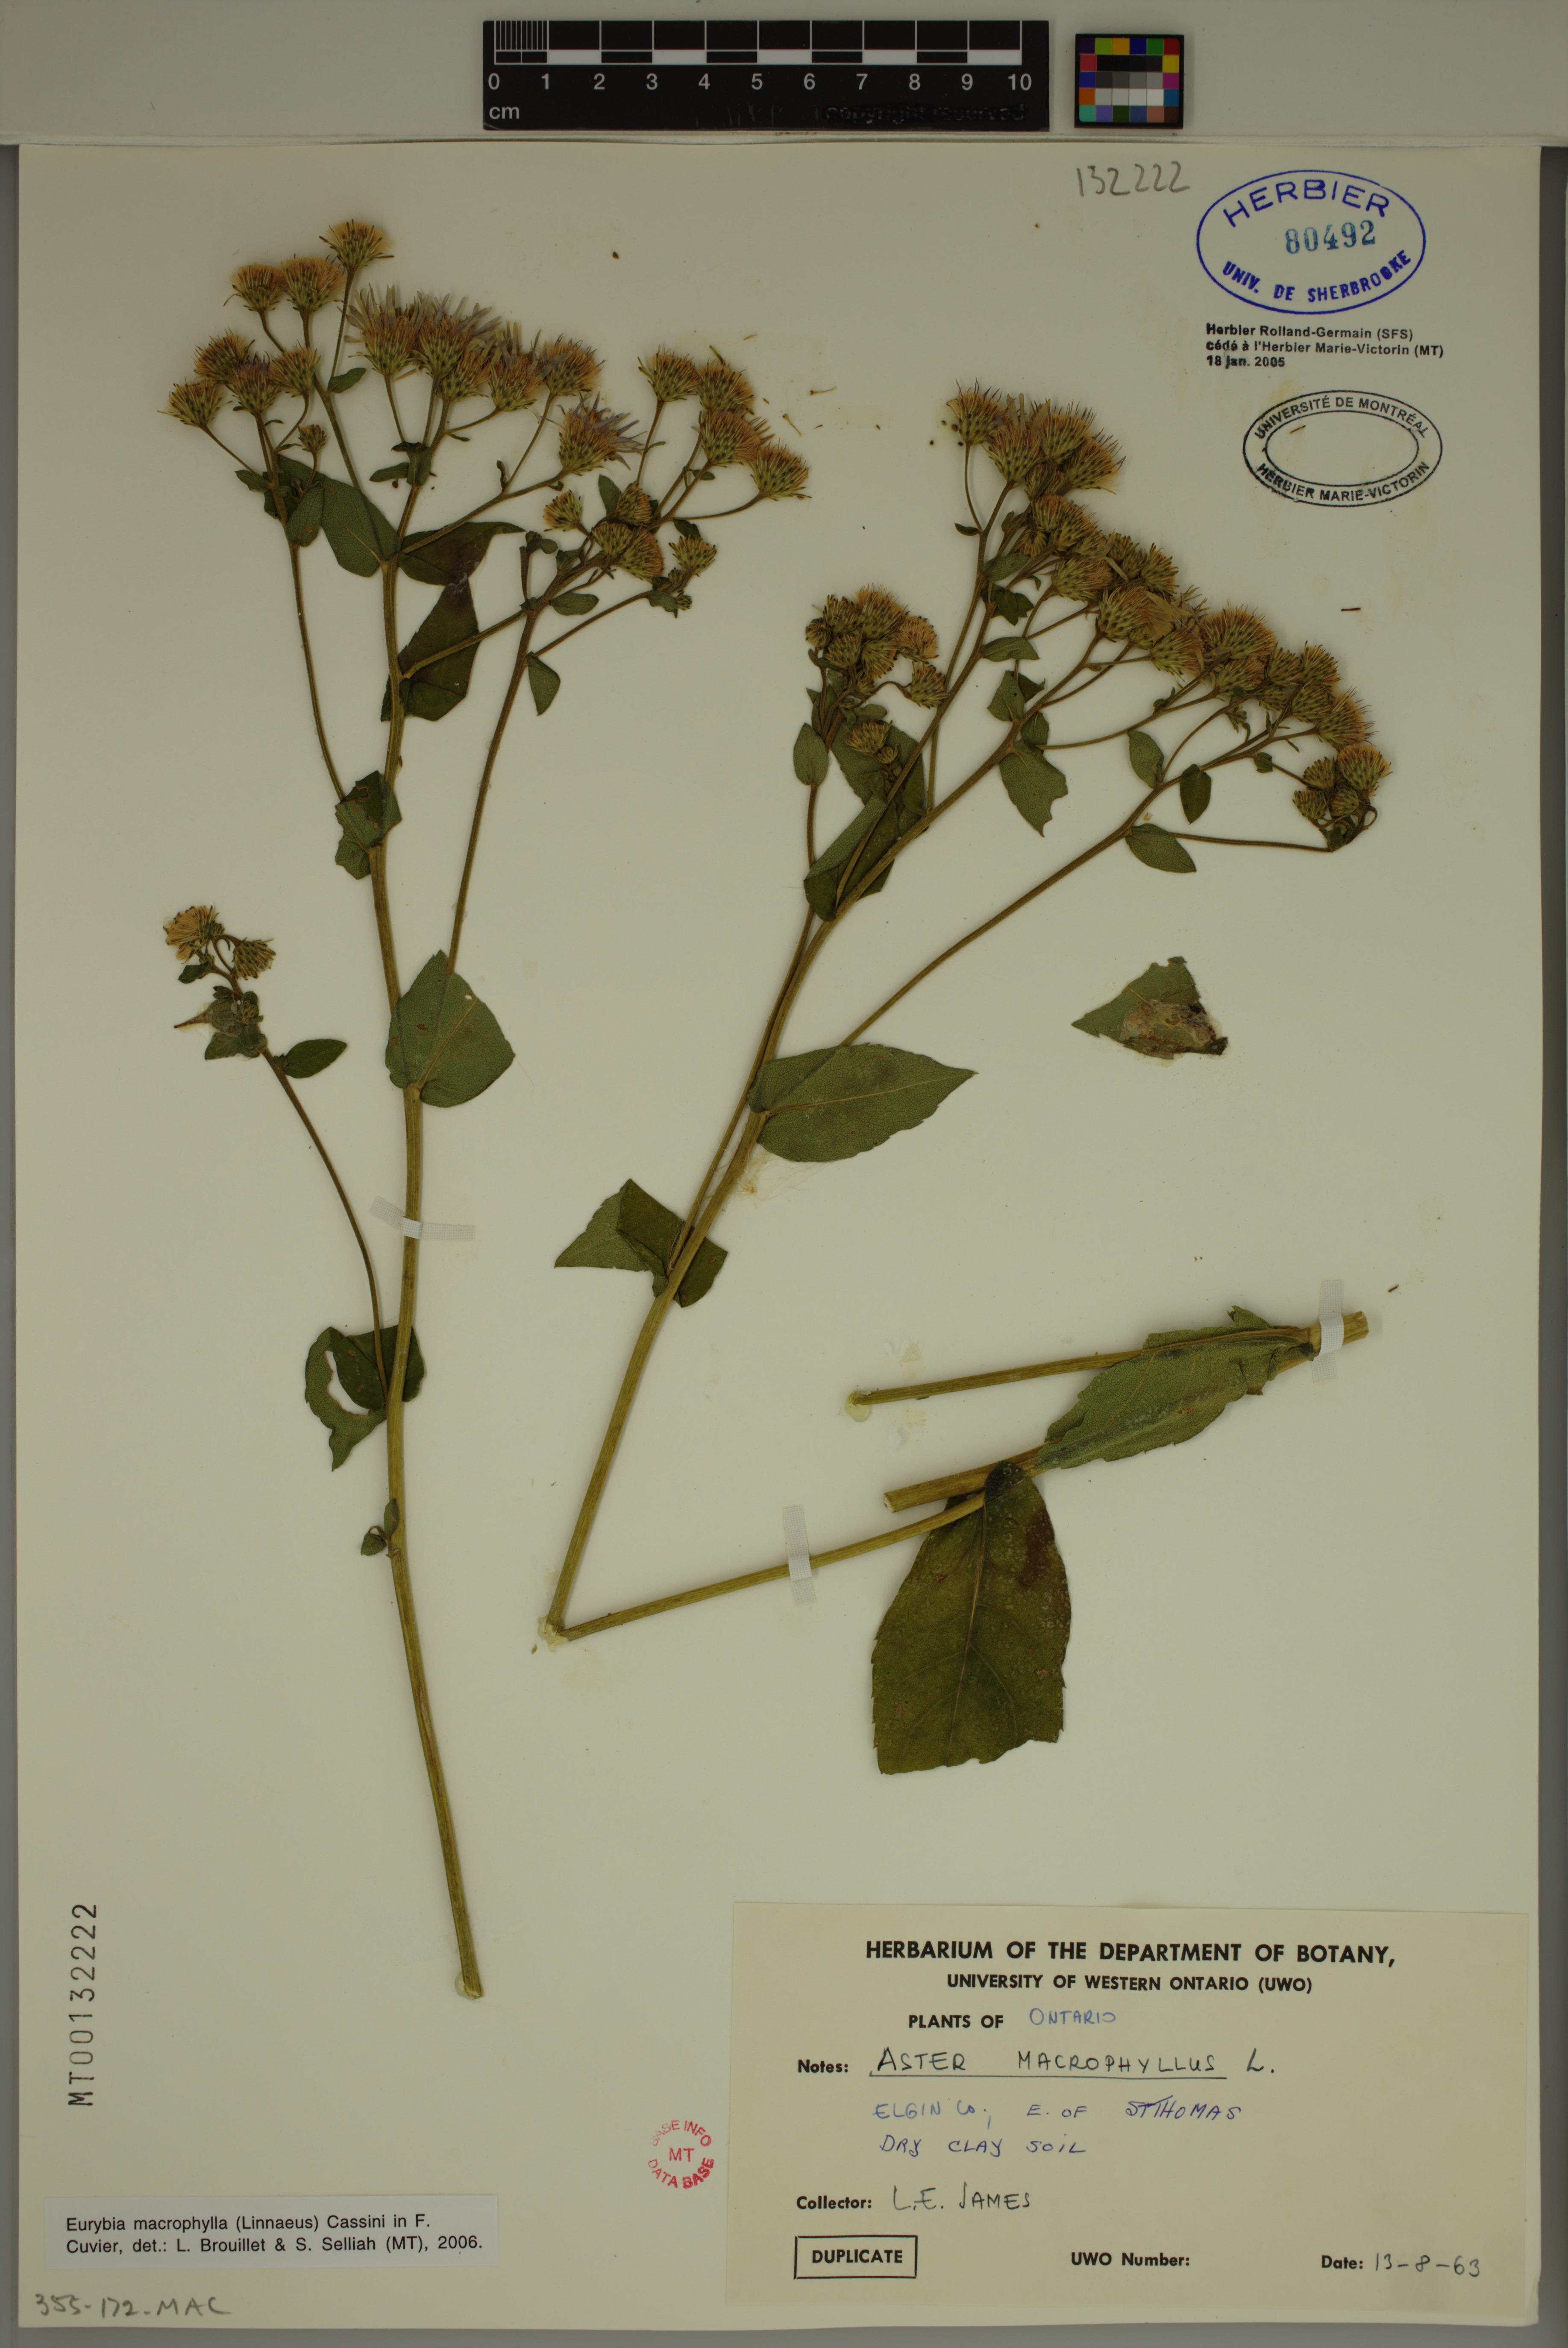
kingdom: Plantae
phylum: Tracheophyta
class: Magnoliopsida
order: Asterales
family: Asteraceae
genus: Eurybia
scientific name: Eurybia macrophylla
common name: Big-leaved aster
